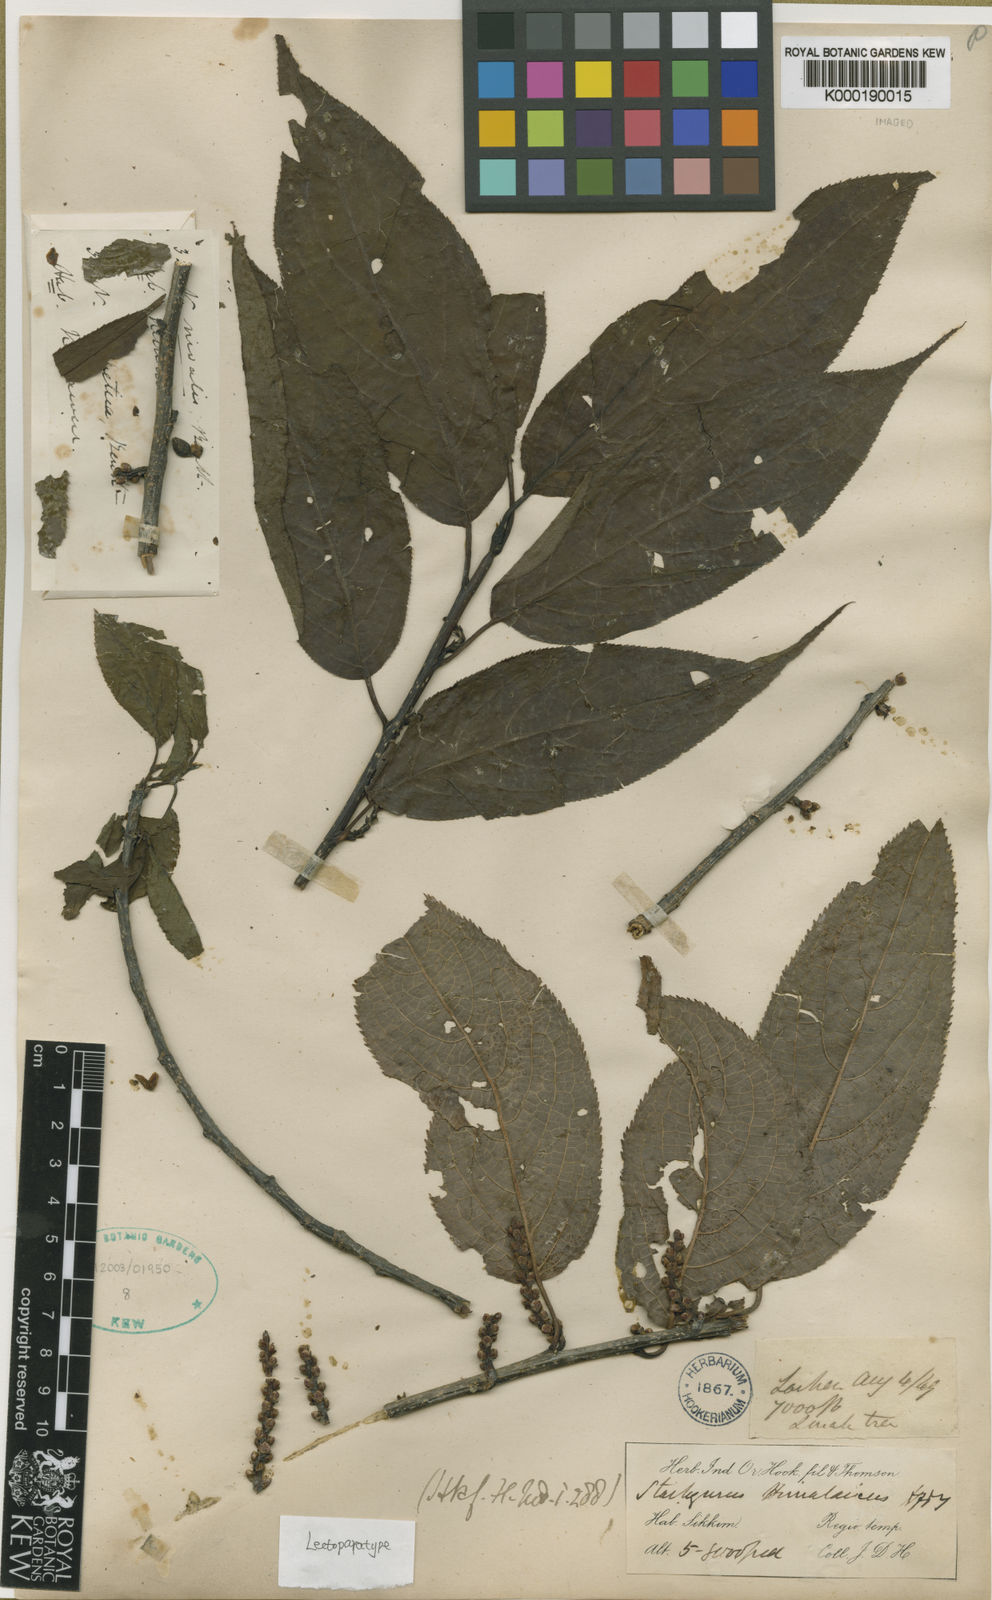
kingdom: Plantae
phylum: Tracheophyta
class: Magnoliopsida
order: Crossosomatales
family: Stachyuraceae
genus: Stachyurus
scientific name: Stachyurus himalaicus
